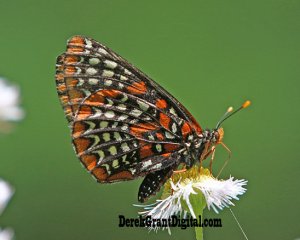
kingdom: Animalia
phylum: Arthropoda
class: Insecta
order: Lepidoptera
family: Nymphalidae
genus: Euphydryas
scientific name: Euphydryas phaeton
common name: Baltimore Checkerspot
